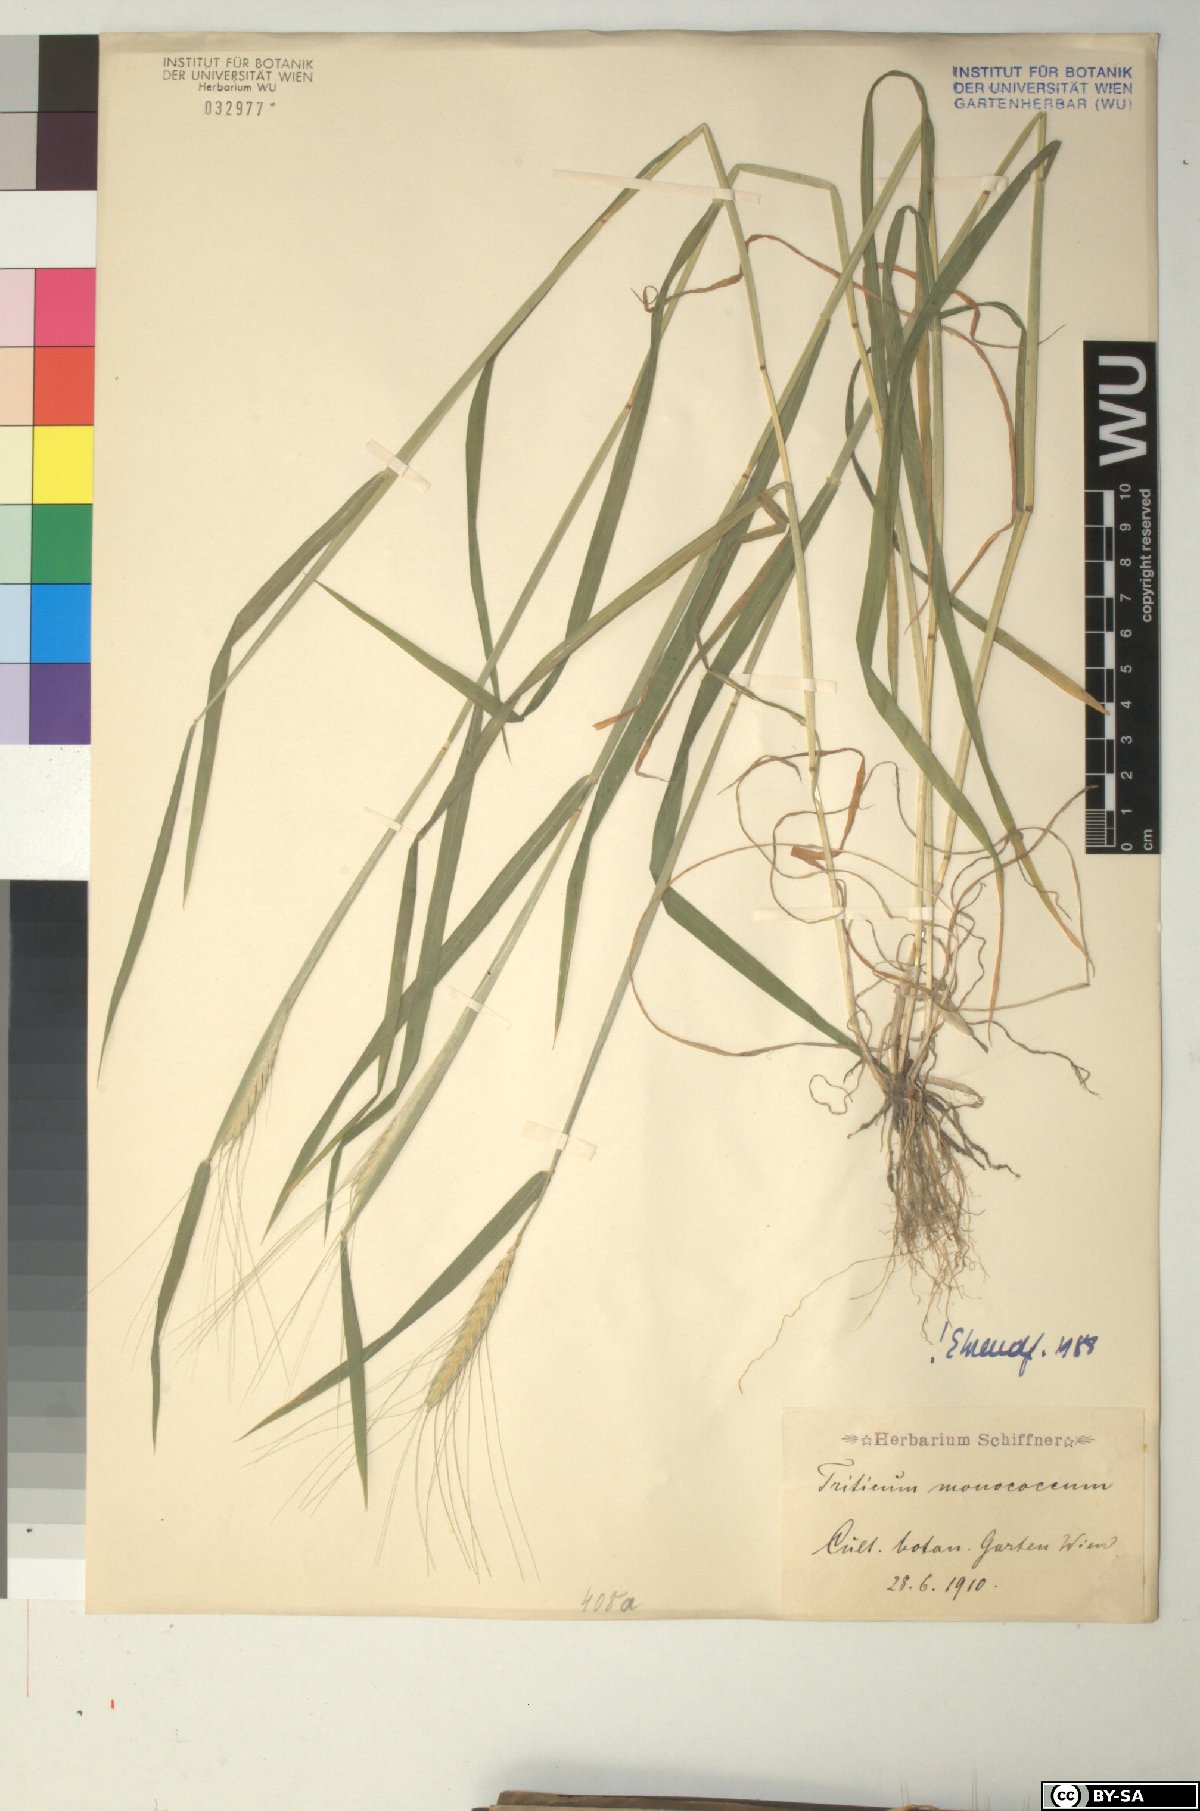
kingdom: Plantae
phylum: Tracheophyta
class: Liliopsida
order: Poales
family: Poaceae
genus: Triticum
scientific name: Triticum monococcum
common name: Einkorn
